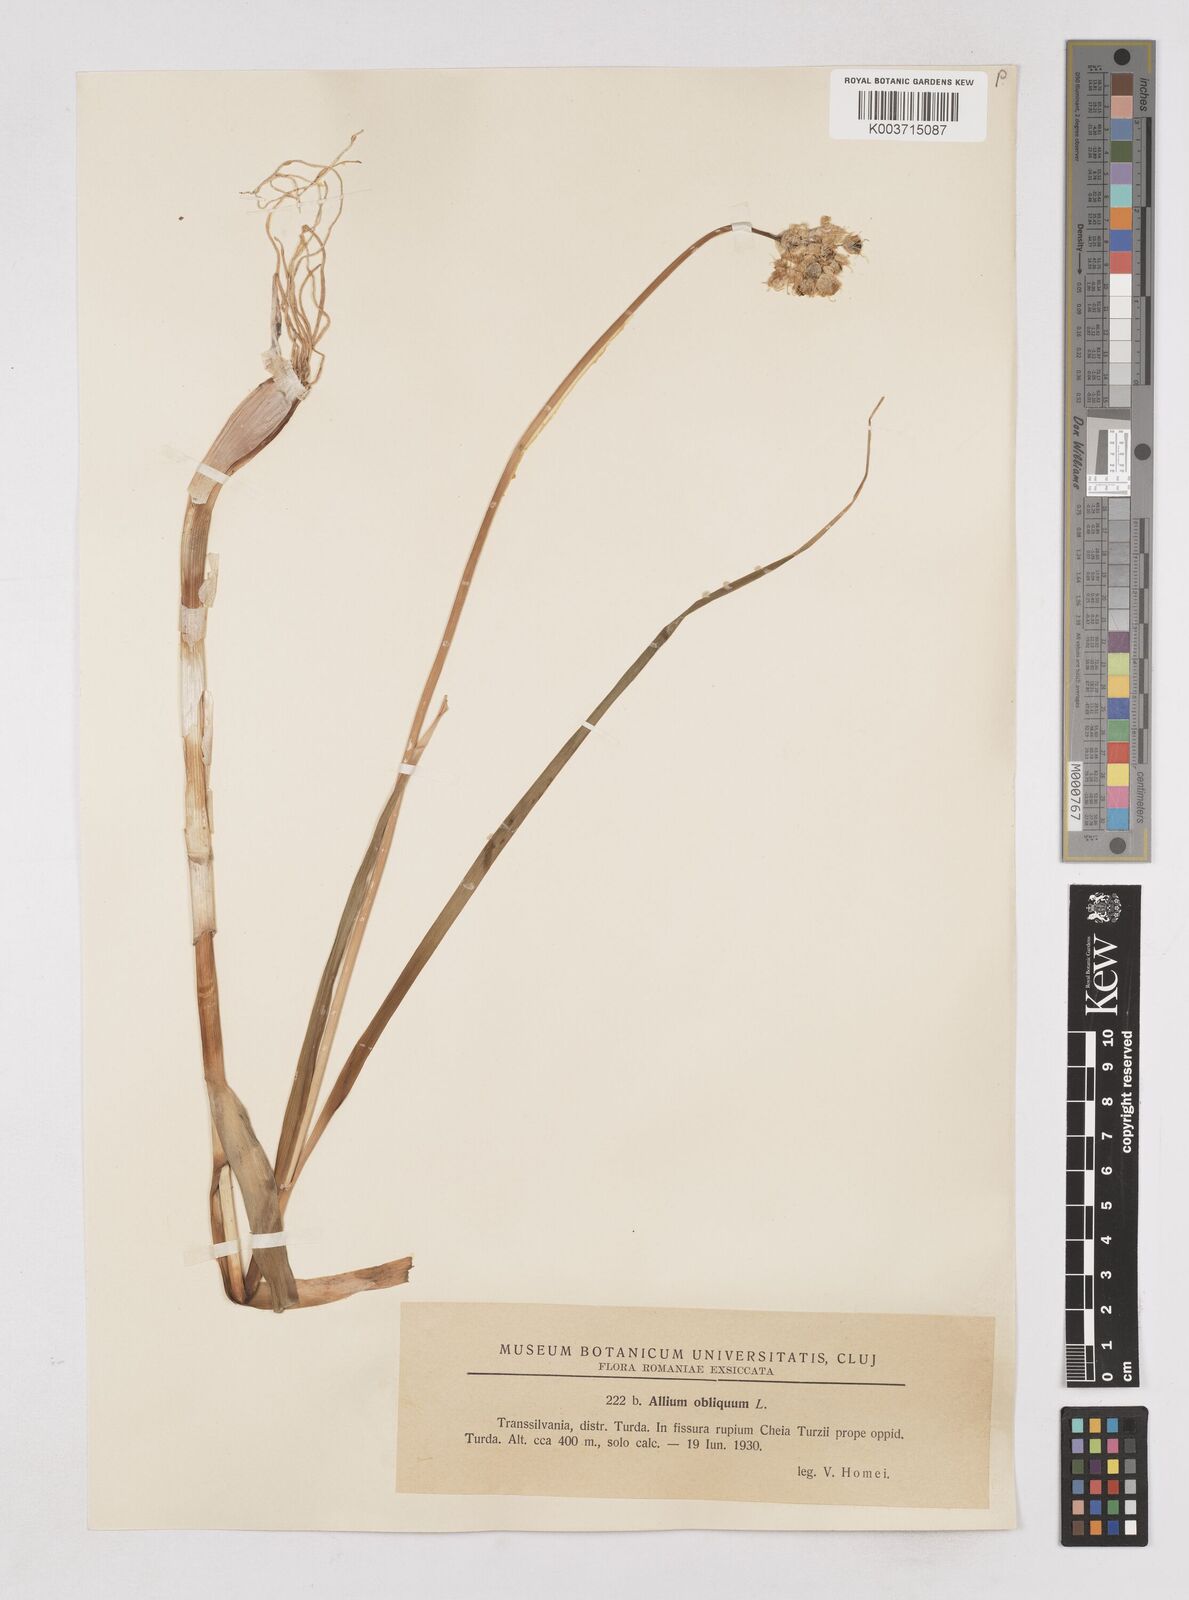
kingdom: Plantae
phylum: Tracheophyta
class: Liliopsida
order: Asparagales
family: Amaryllidaceae
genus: Allium
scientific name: Allium obliquum
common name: Oblique onion
